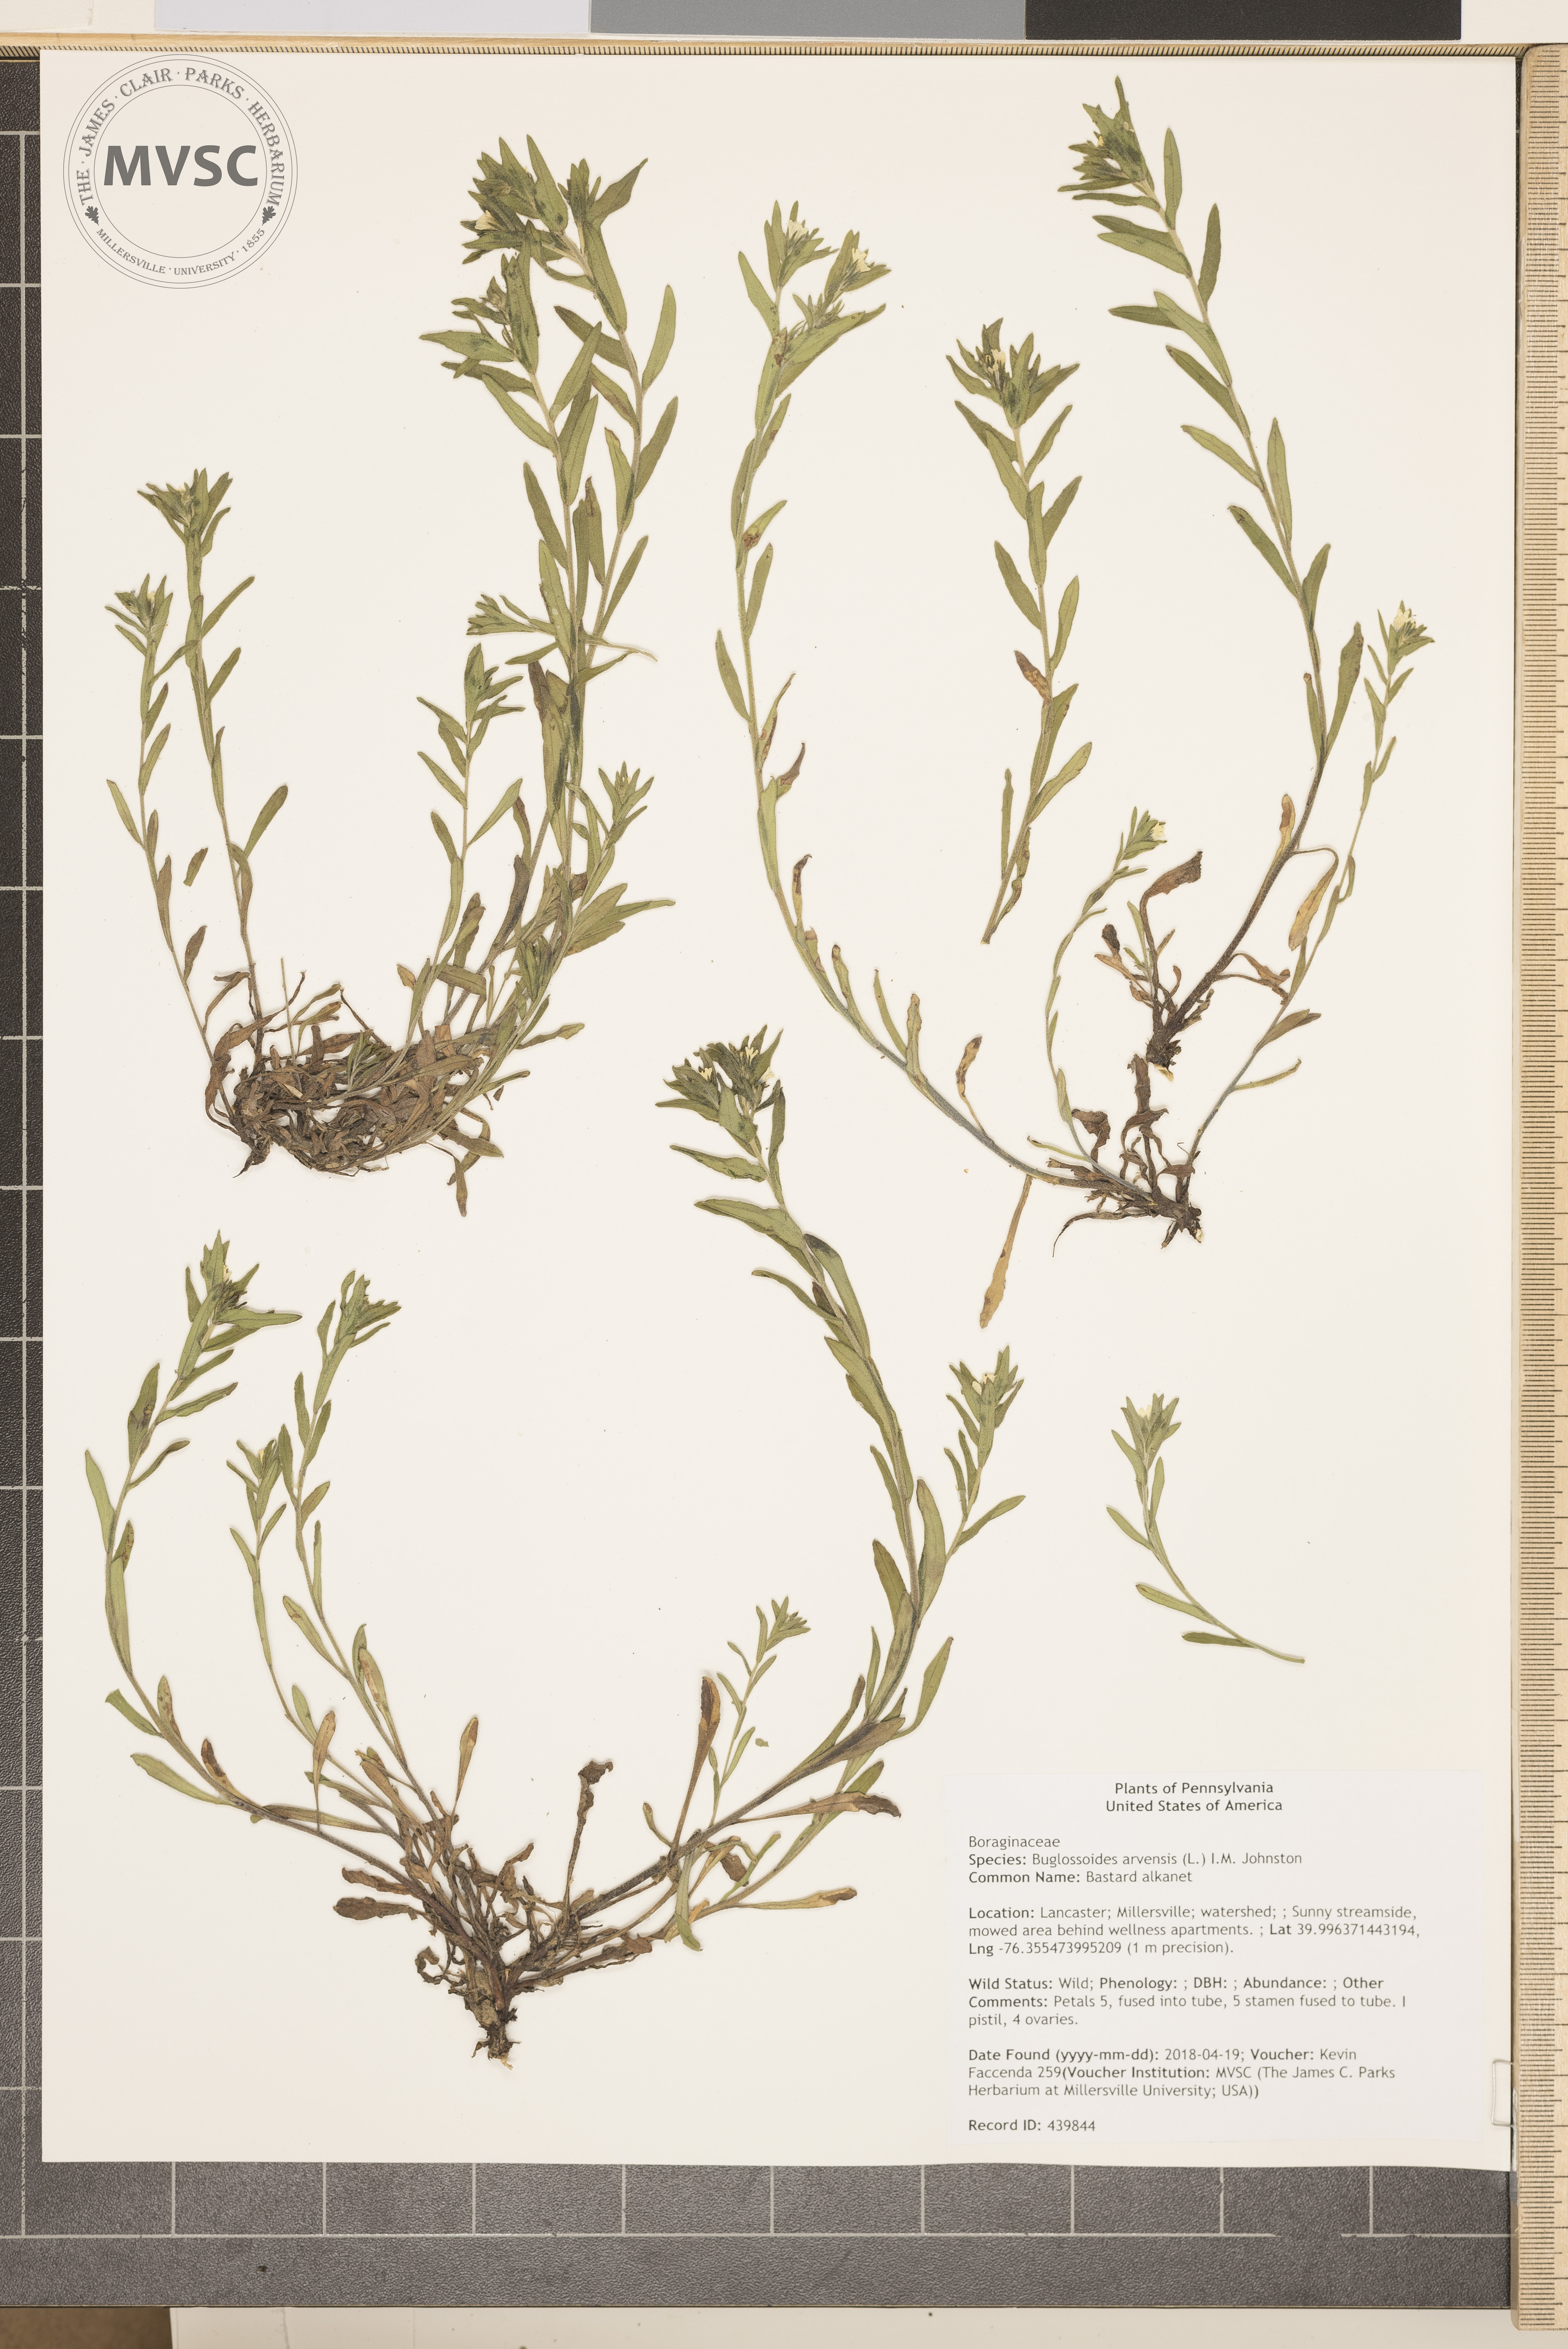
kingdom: Plantae
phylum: Tracheophyta
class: Magnoliopsida
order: Boraginales
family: Boraginaceae
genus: Buglossoides
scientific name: Buglossoides arvensis
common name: Bastard alkanet
